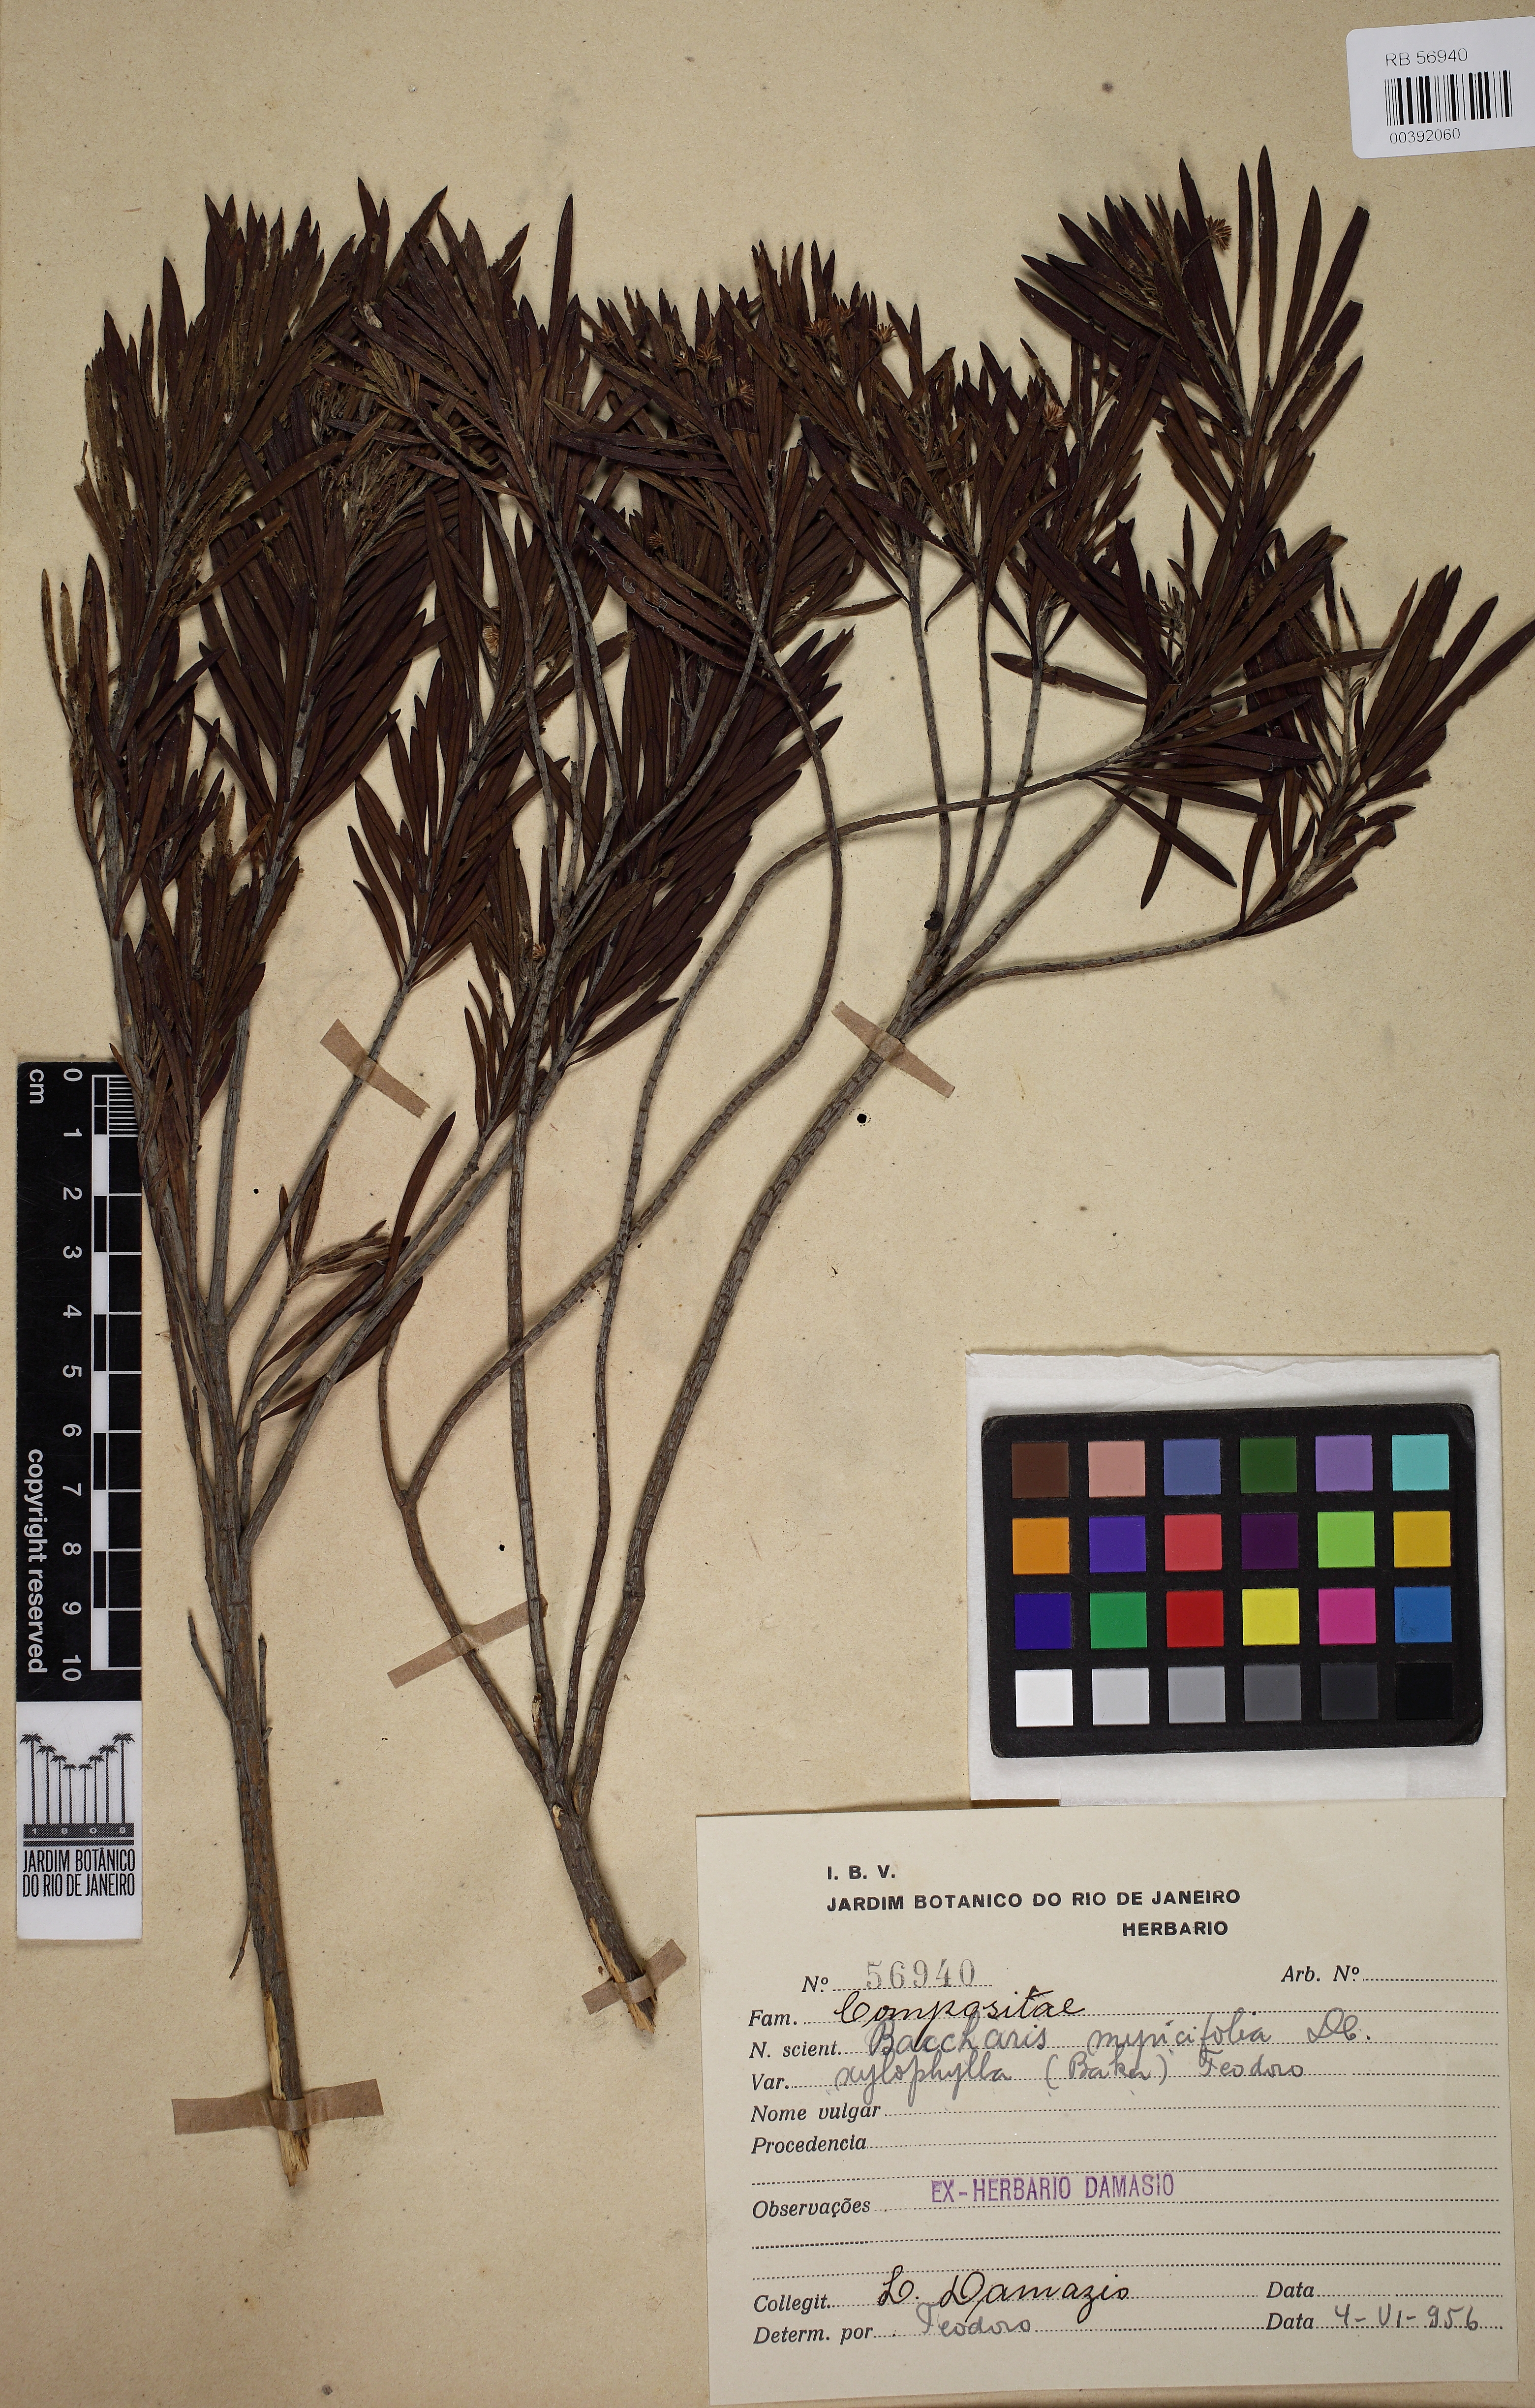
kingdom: Plantae
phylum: Tracheophyta
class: Magnoliopsida
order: Asterales
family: Asteraceae
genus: Baccharis
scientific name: Baccharis myricifolia
